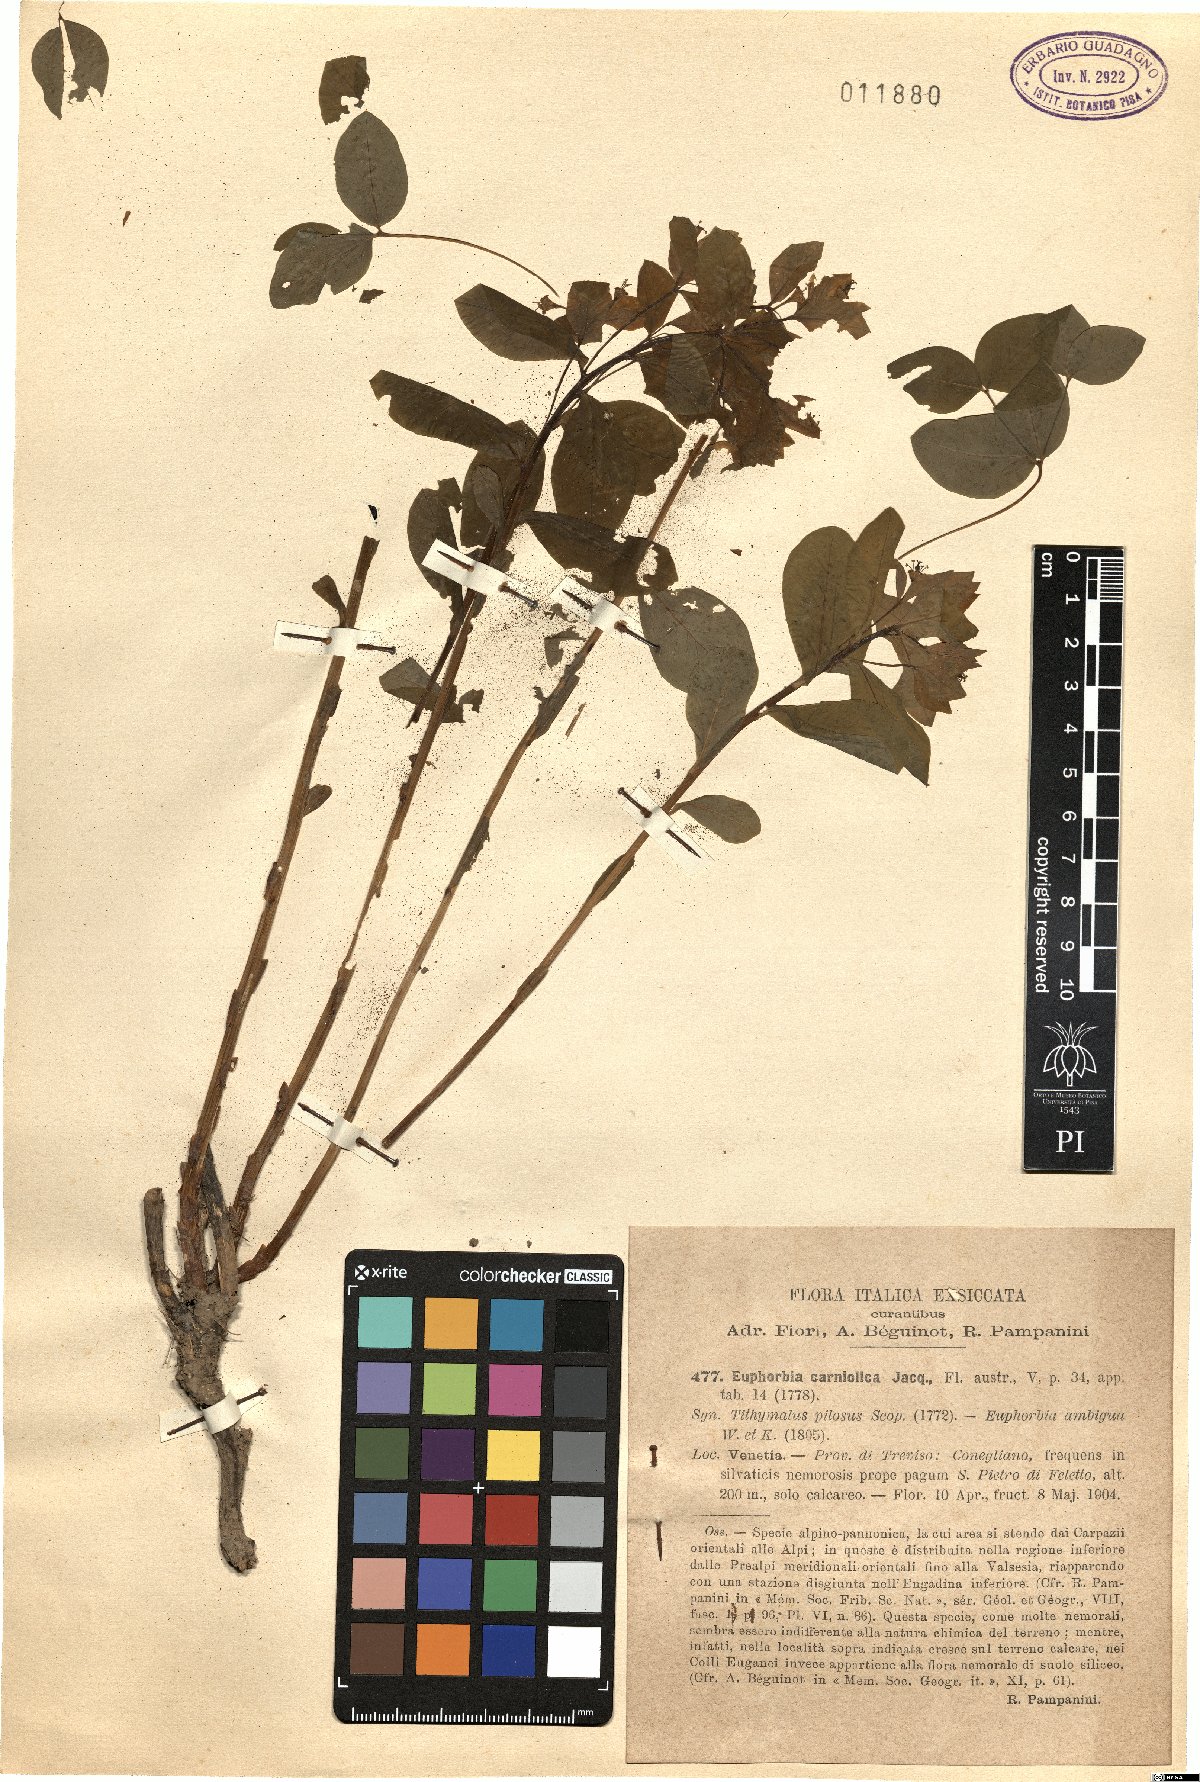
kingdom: Plantae
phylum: Tracheophyta
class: Magnoliopsida
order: Malpighiales
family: Euphorbiaceae
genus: Euphorbia
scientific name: Euphorbia carniolica
